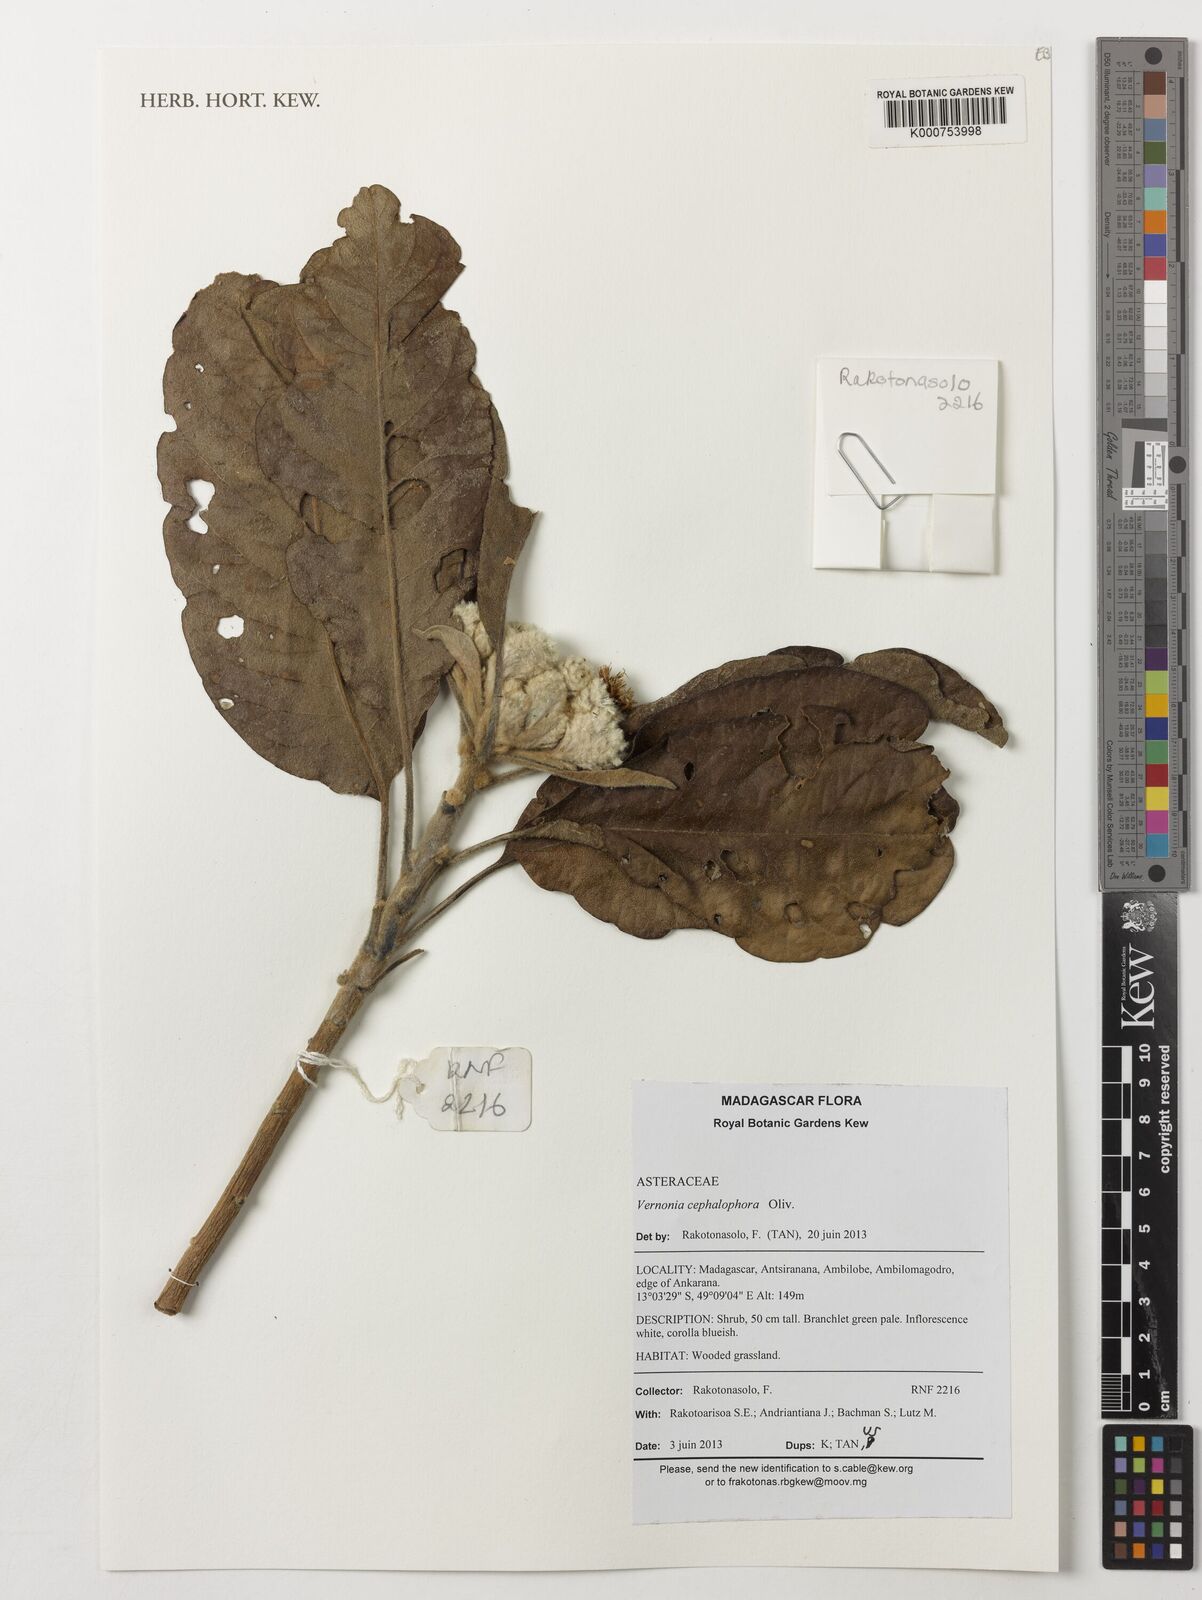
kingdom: Plantae
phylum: Tracheophyta
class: Magnoliopsida
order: Asterales
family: Asteraceae
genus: Vernonia
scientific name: Vernonia cephalophora
